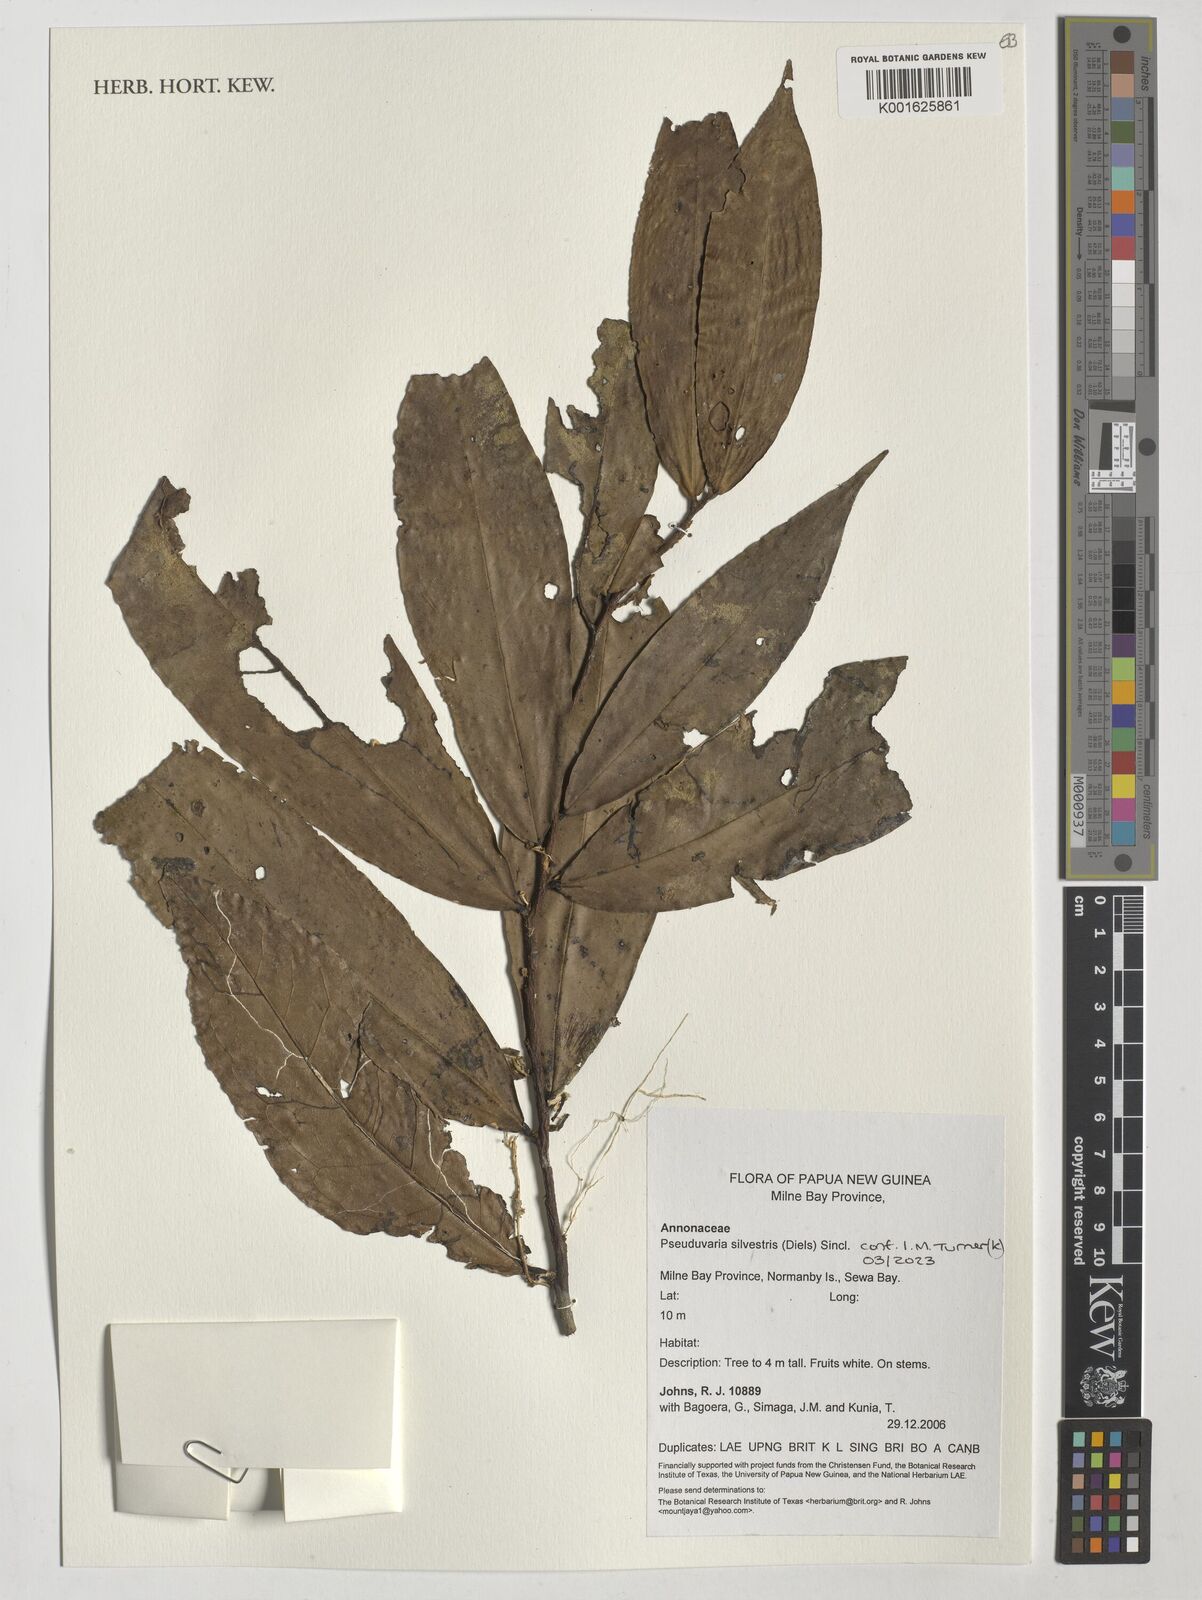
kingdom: Plantae
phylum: Tracheophyta
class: Magnoliopsida
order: Magnoliales
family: Annonaceae
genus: Pseuduvaria
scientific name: Pseuduvaria silvestris
